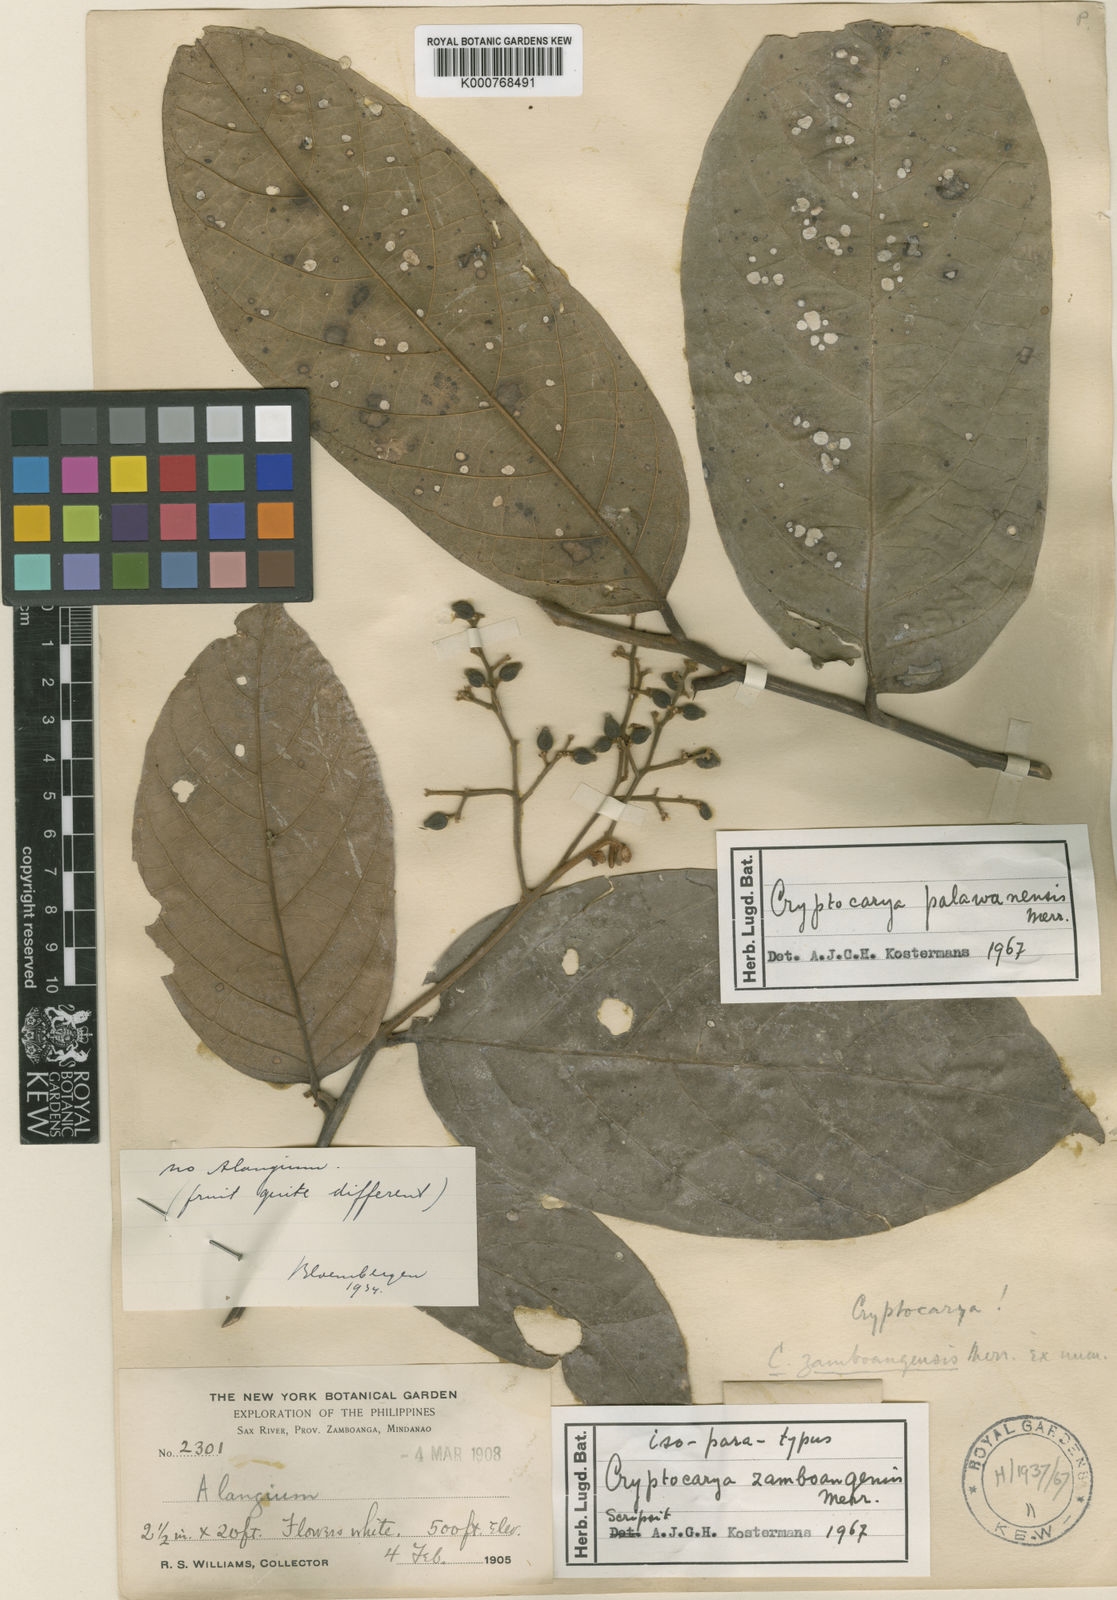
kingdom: Plantae
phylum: Tracheophyta
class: Magnoliopsida
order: Laurales
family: Lauraceae
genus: Cryptocarya
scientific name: Cryptocarya palawanensis
